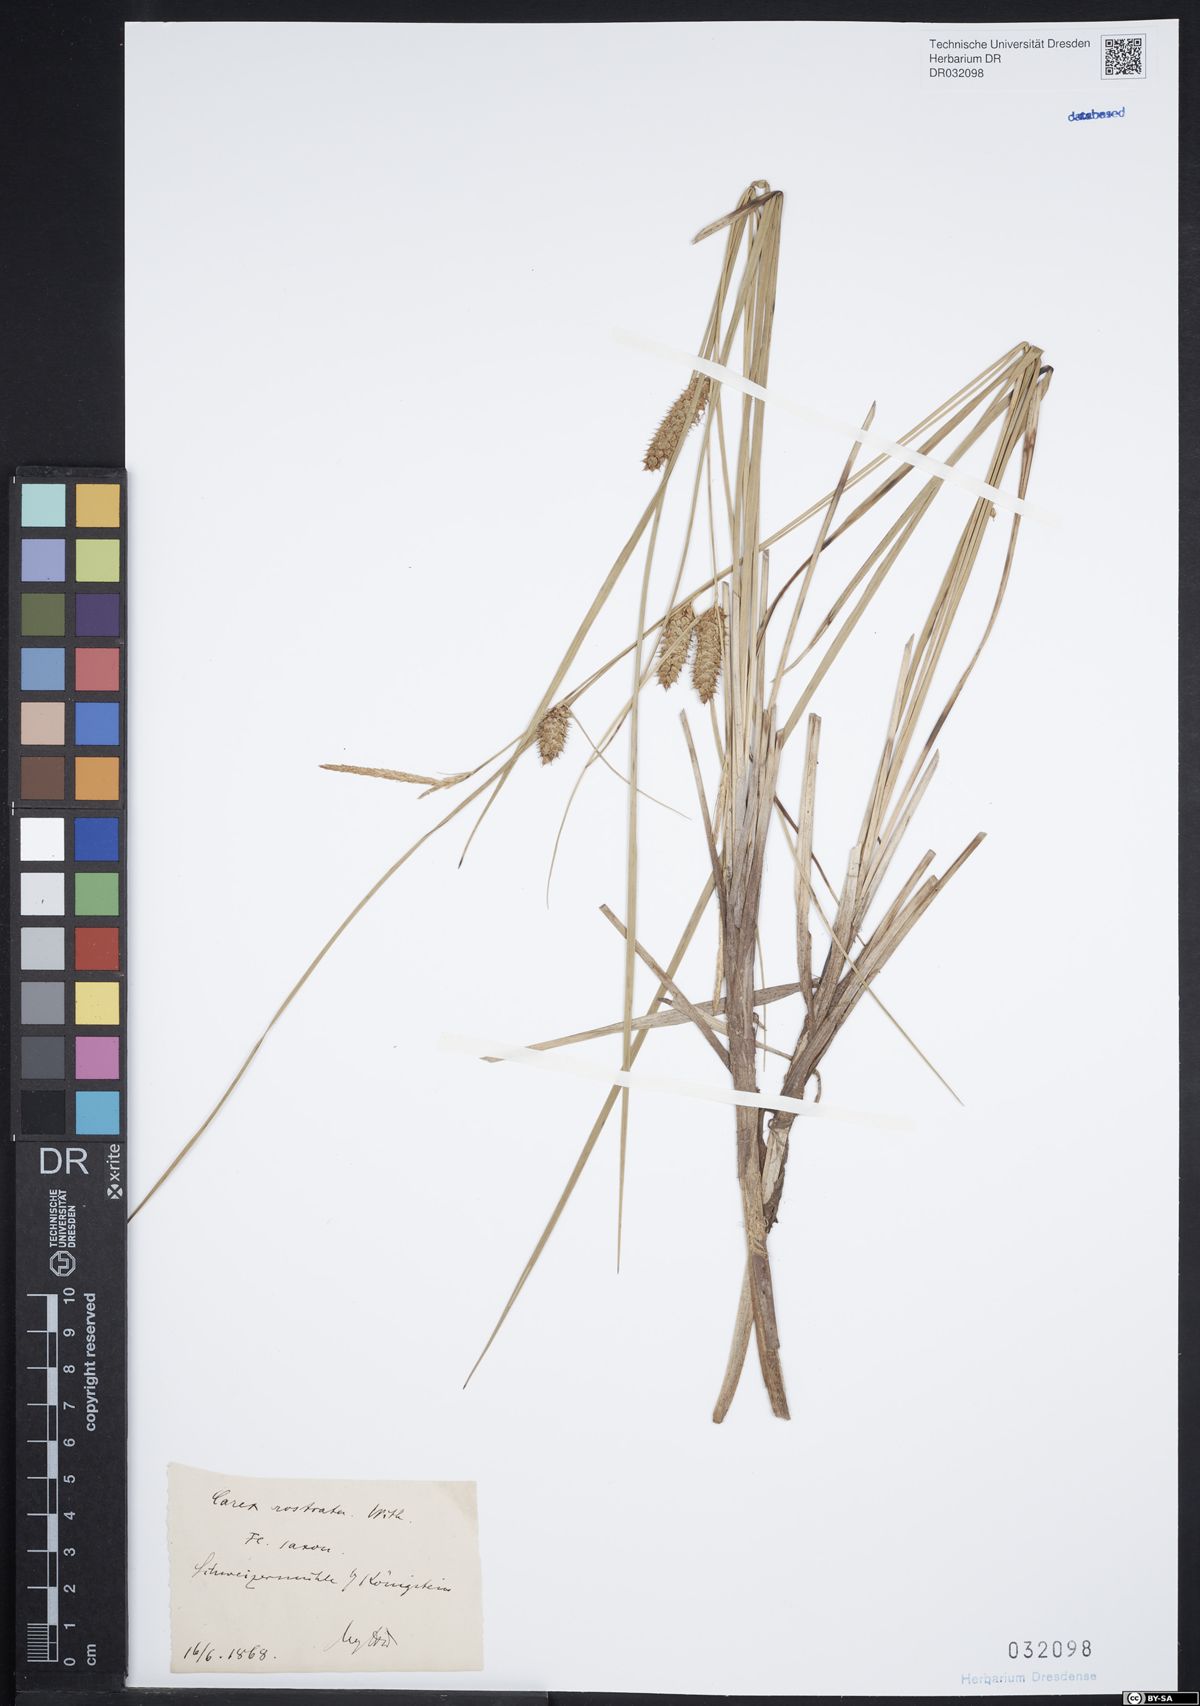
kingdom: Plantae
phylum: Tracheophyta
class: Liliopsida
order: Poales
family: Cyperaceae
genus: Carex
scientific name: Carex rostrata
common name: Bottle sedge
